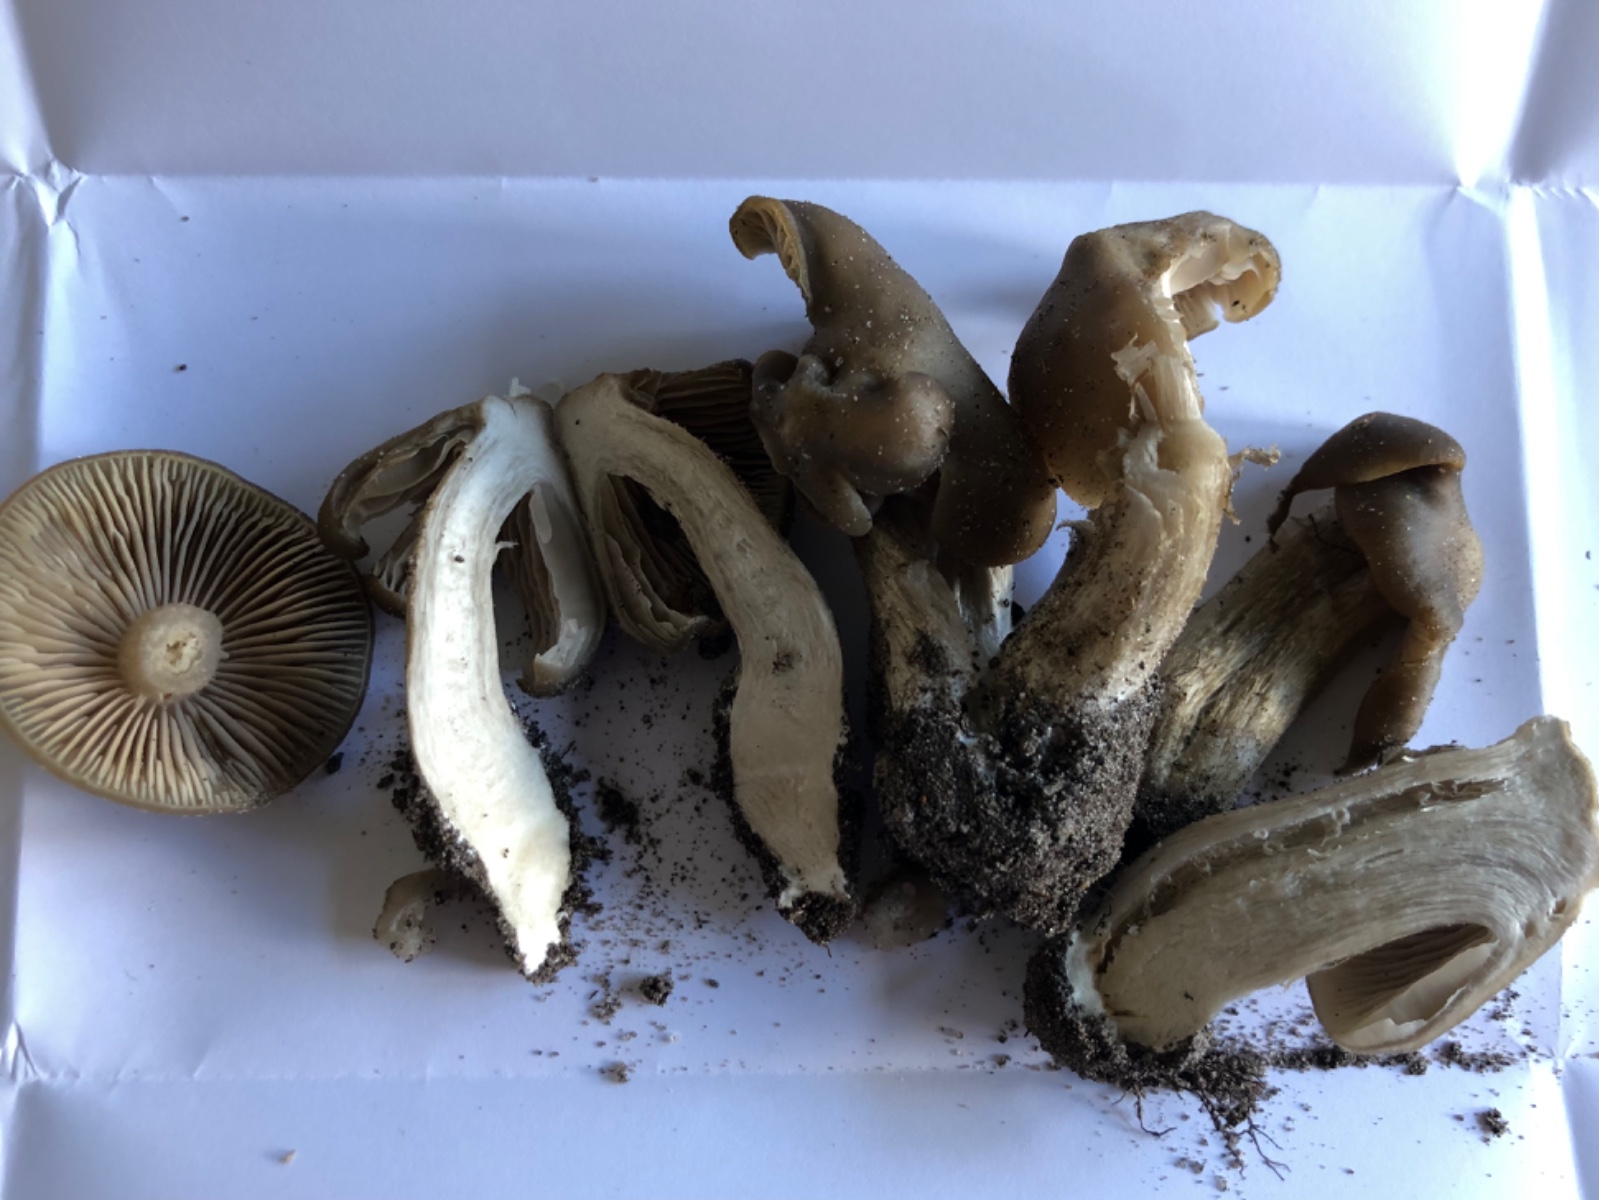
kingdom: Fungi
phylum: Basidiomycota
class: Agaricomycetes
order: Agaricales
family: Entolomataceae
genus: Entoloma
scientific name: Entoloma
